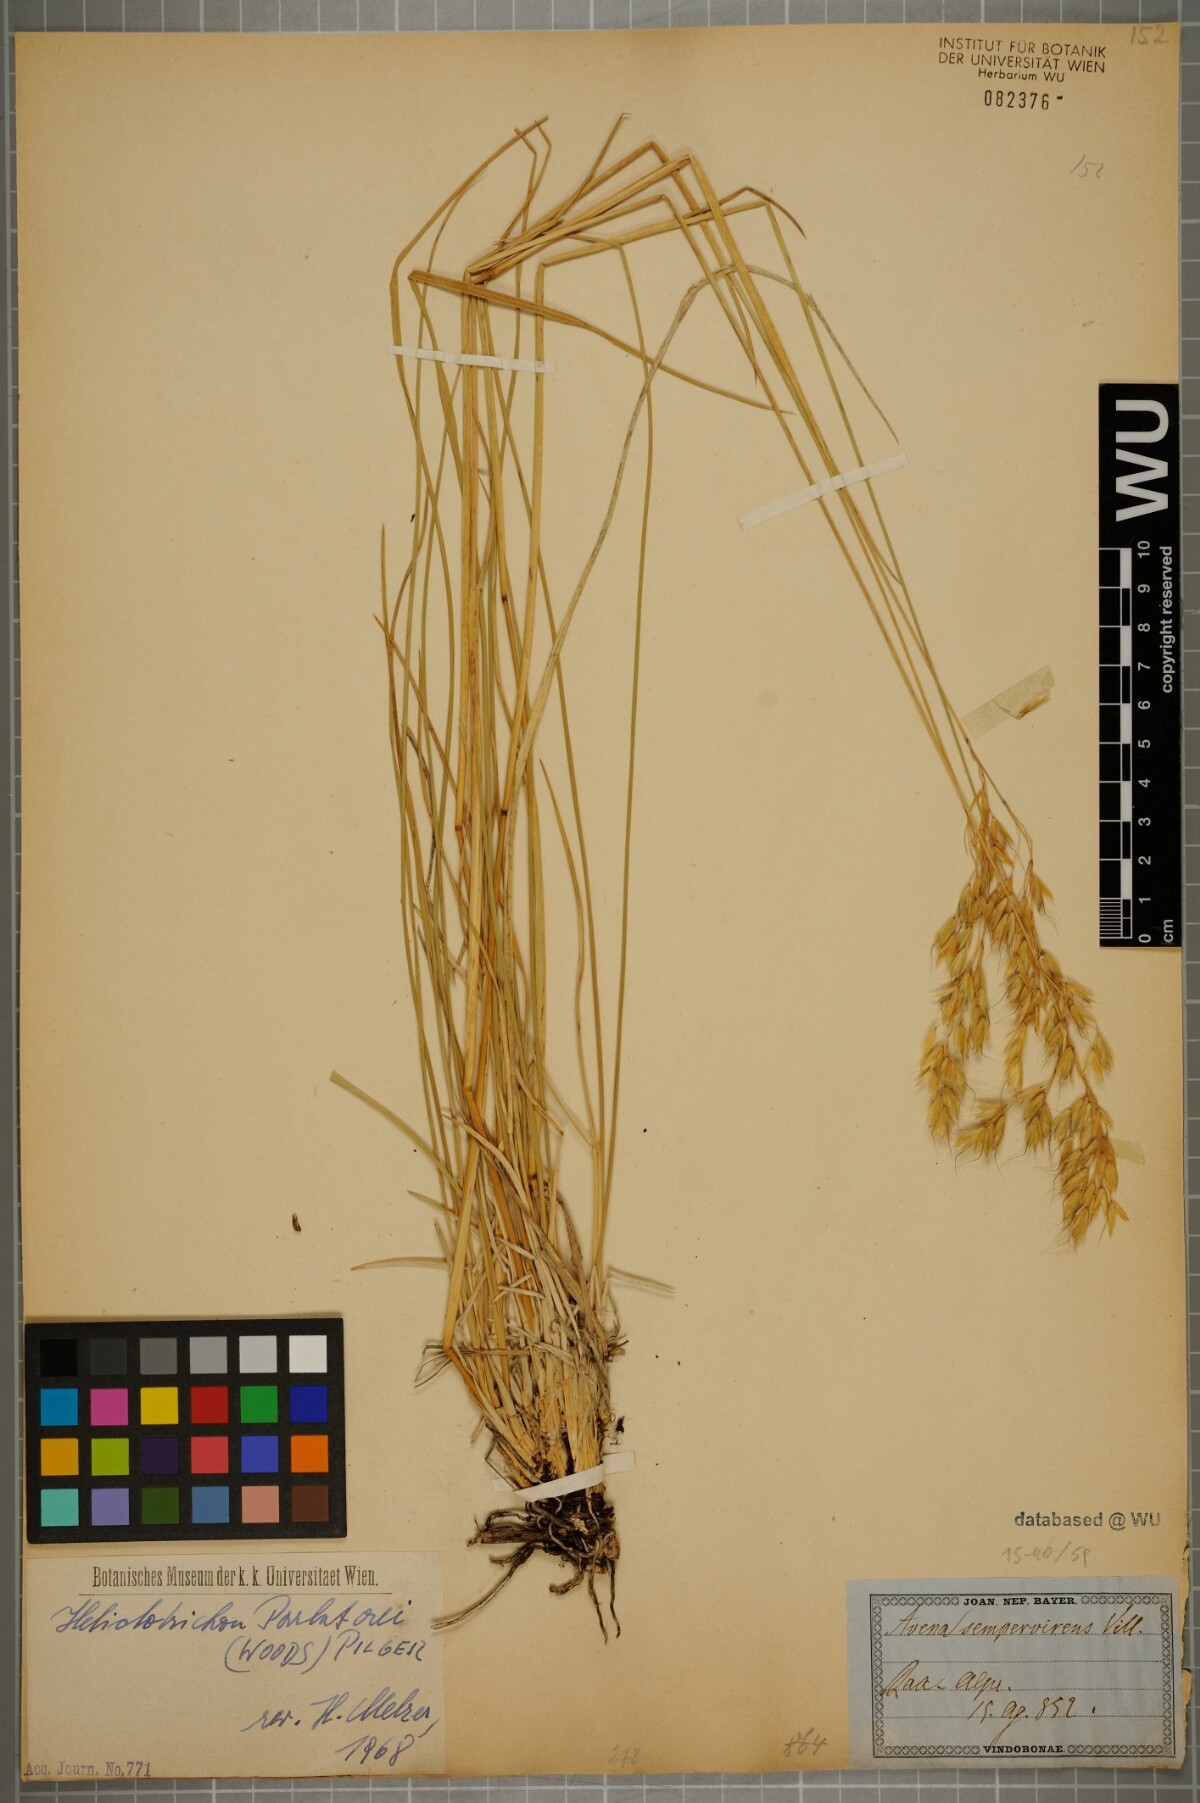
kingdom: Plantae
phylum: Tracheophyta
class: Liliopsida
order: Poales
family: Poaceae
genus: Helictotrichon
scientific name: Helictotrichon parlatorei
